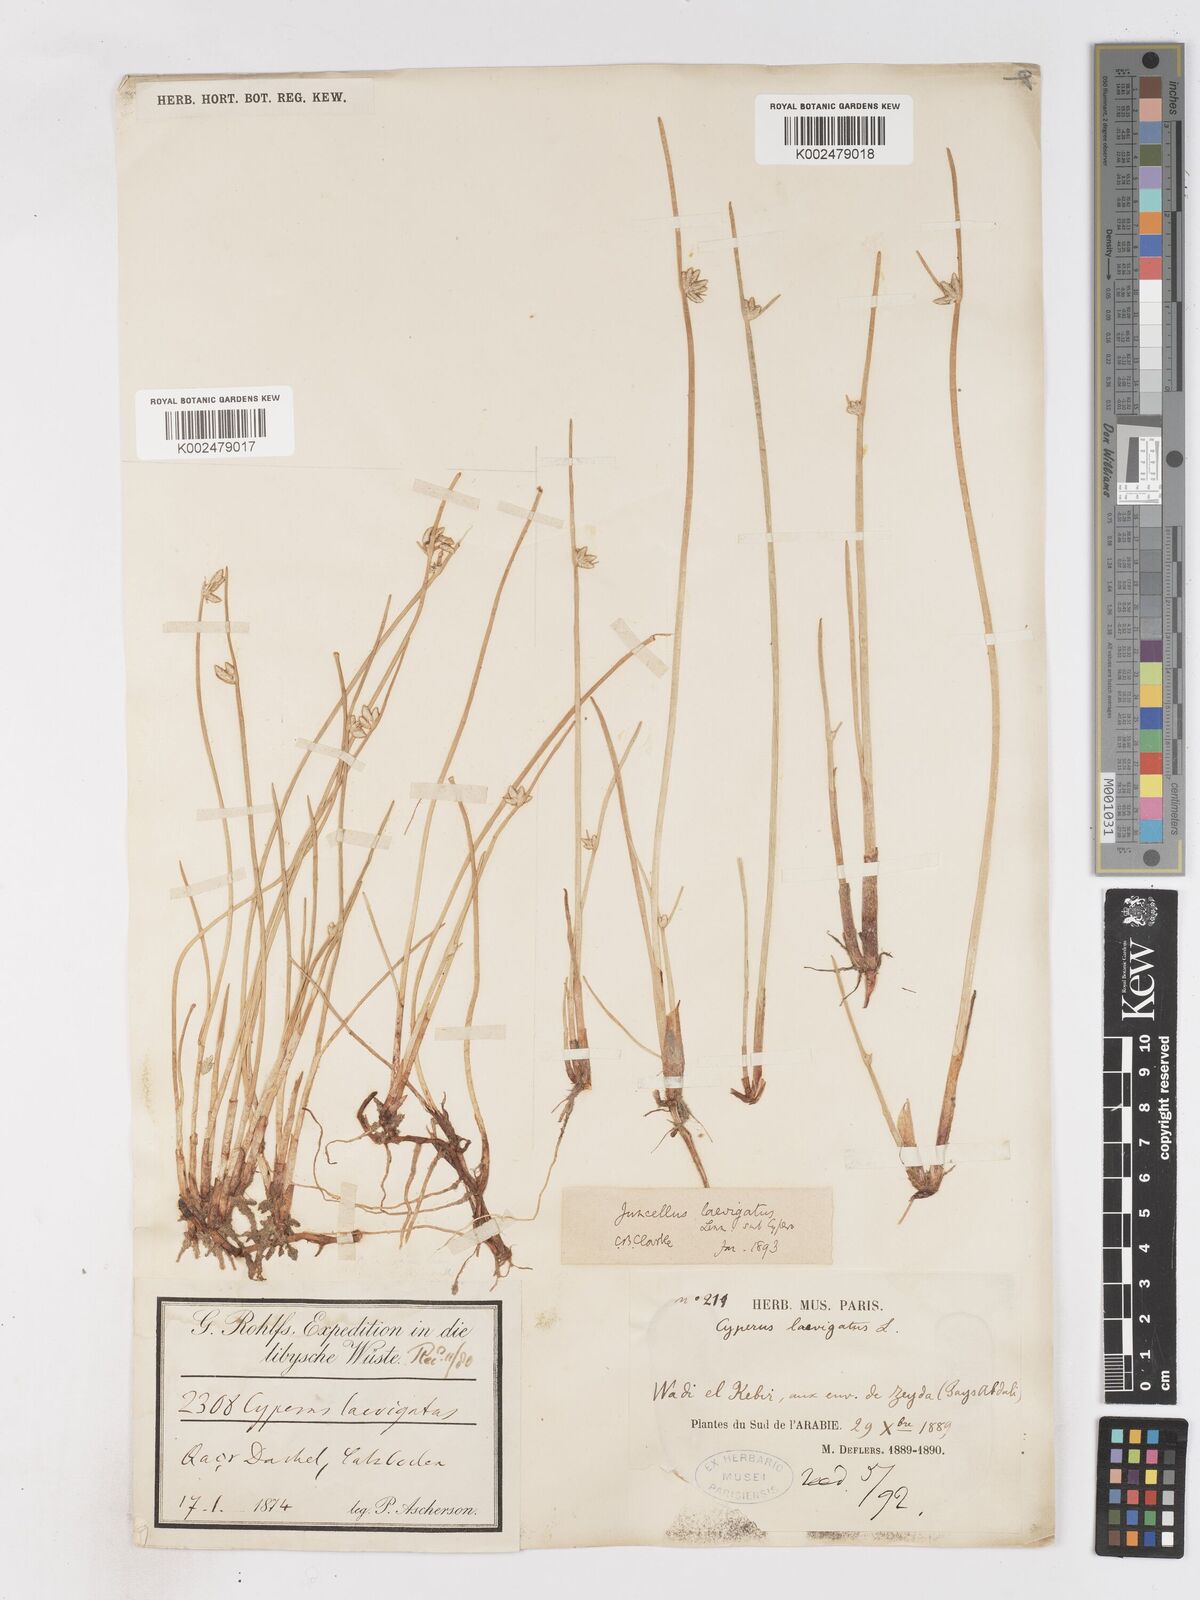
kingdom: Plantae
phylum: Tracheophyta
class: Liliopsida
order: Poales
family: Cyperaceae
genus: Cyperus
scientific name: Cyperus laevigatus
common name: Smooth flat sedge
